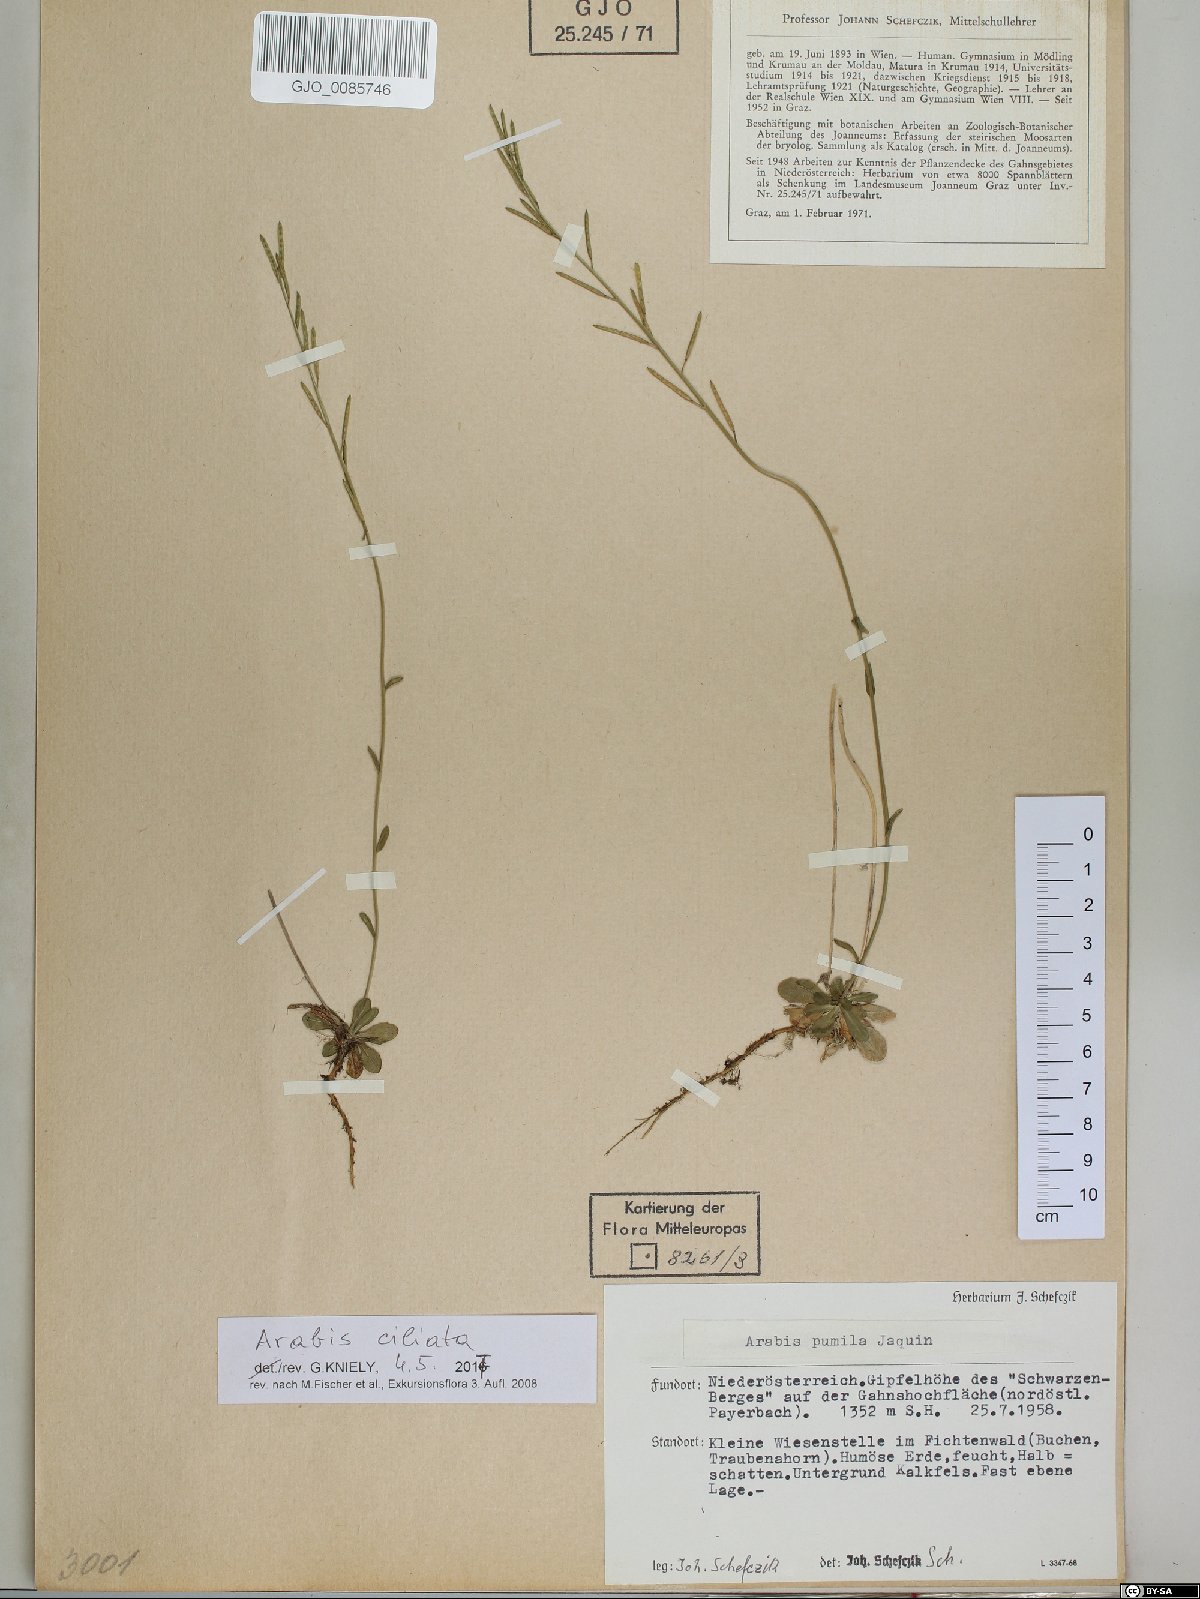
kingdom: Plantae
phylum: Tracheophyta
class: Magnoliopsida
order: Brassicales
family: Brassicaceae
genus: Arabis
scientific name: Arabis ciliata
